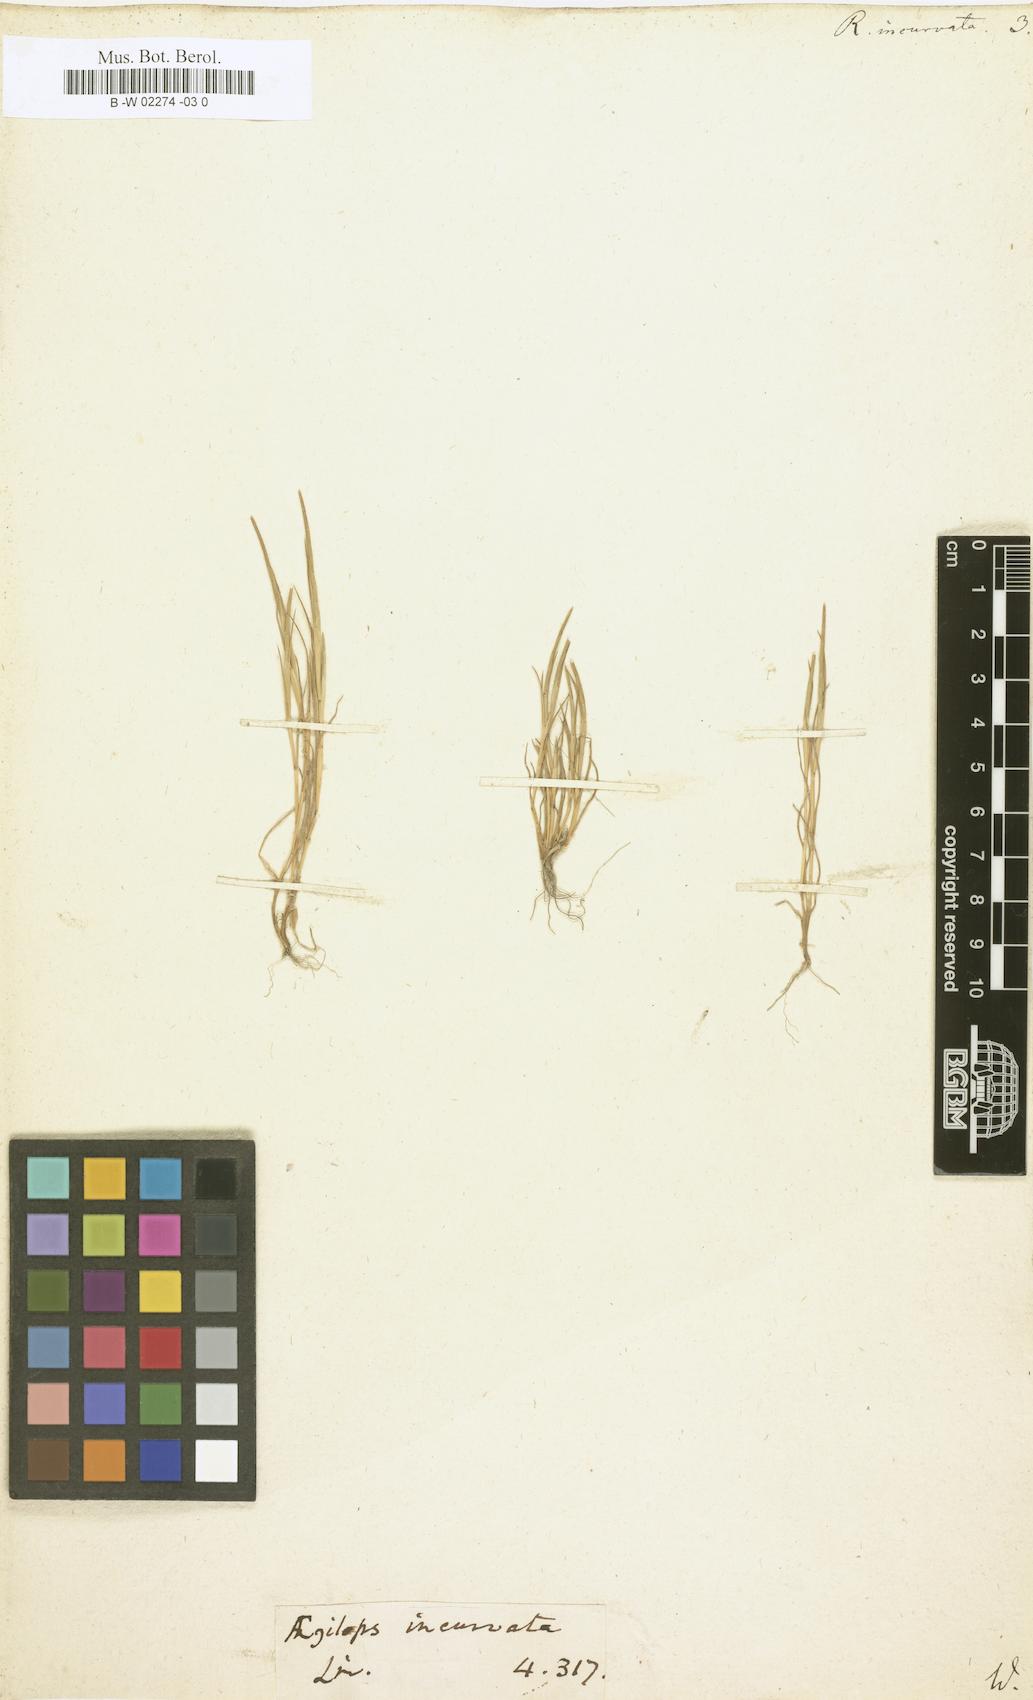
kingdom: Plantae
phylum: Tracheophyta
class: Liliopsida
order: Poales
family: Poaceae
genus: Rottboellia
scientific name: Rottboellia incurvata
